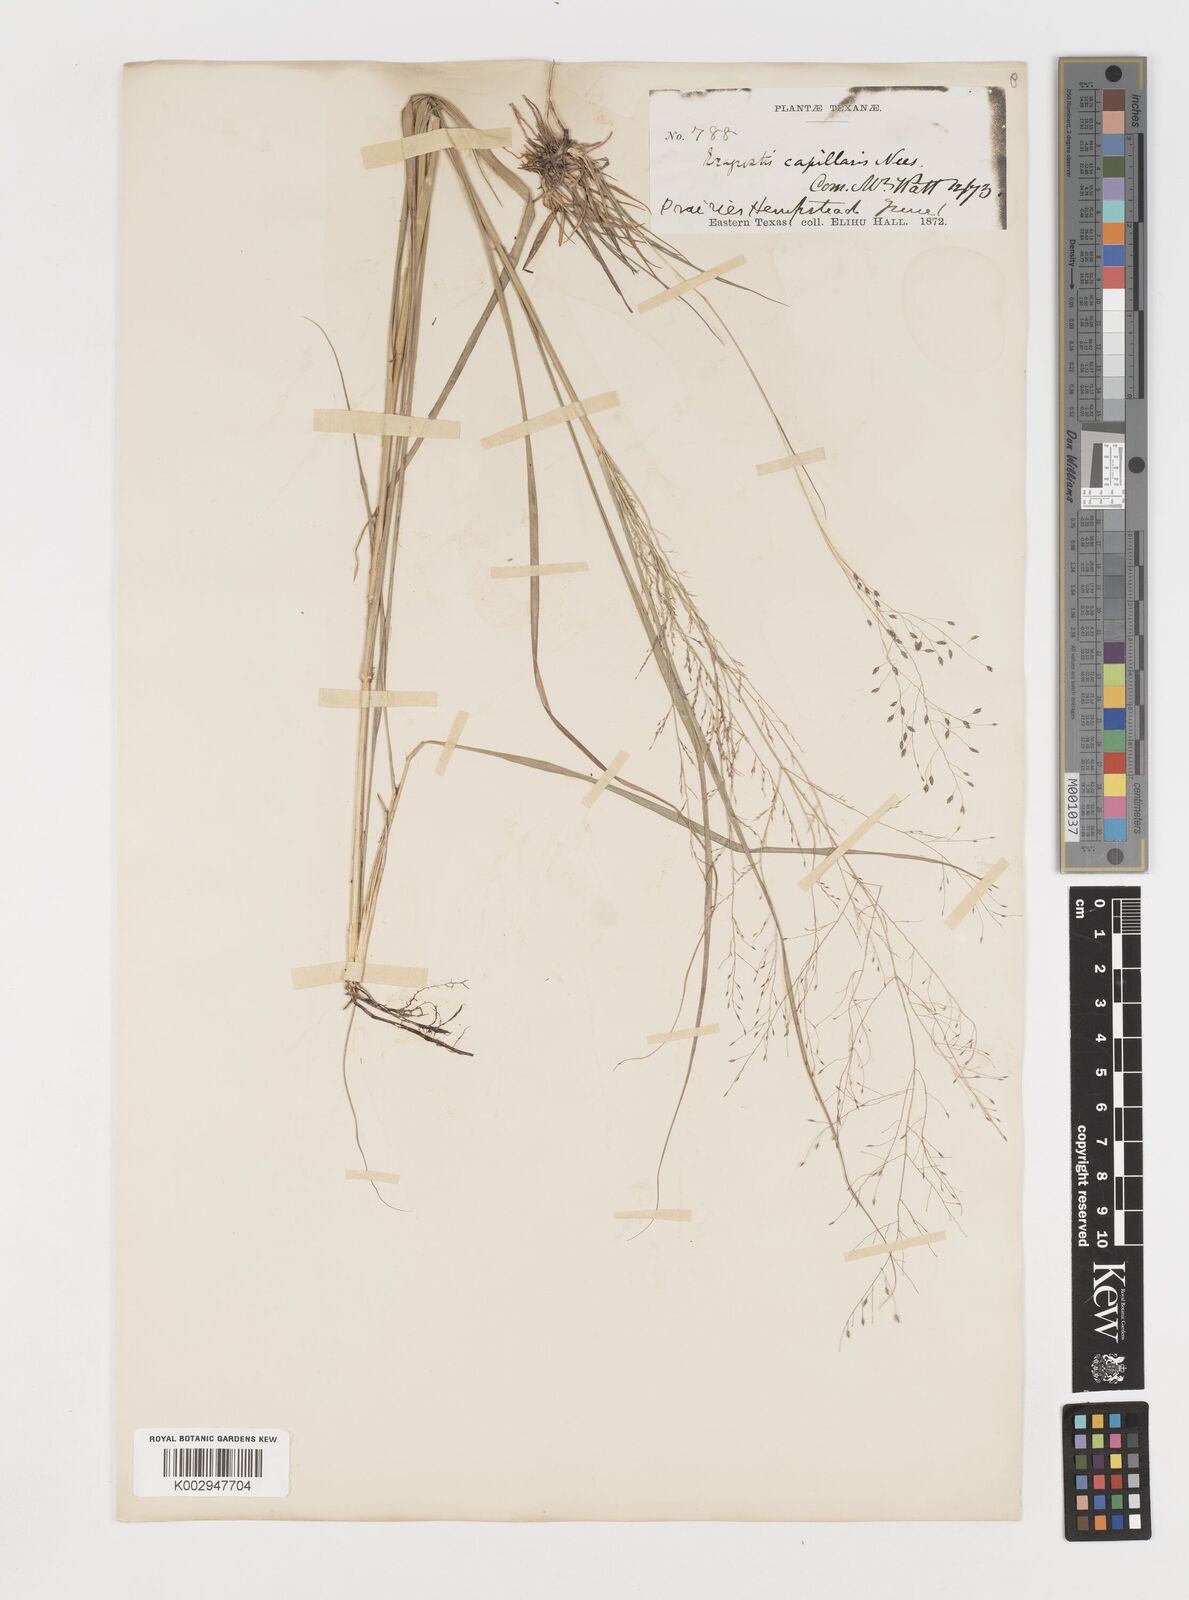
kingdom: Plantae
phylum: Tracheophyta
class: Liliopsida
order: Poales
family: Poaceae
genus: Eragrostis
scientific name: Eragrostis capillaris
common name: Hair-like lovegrass
